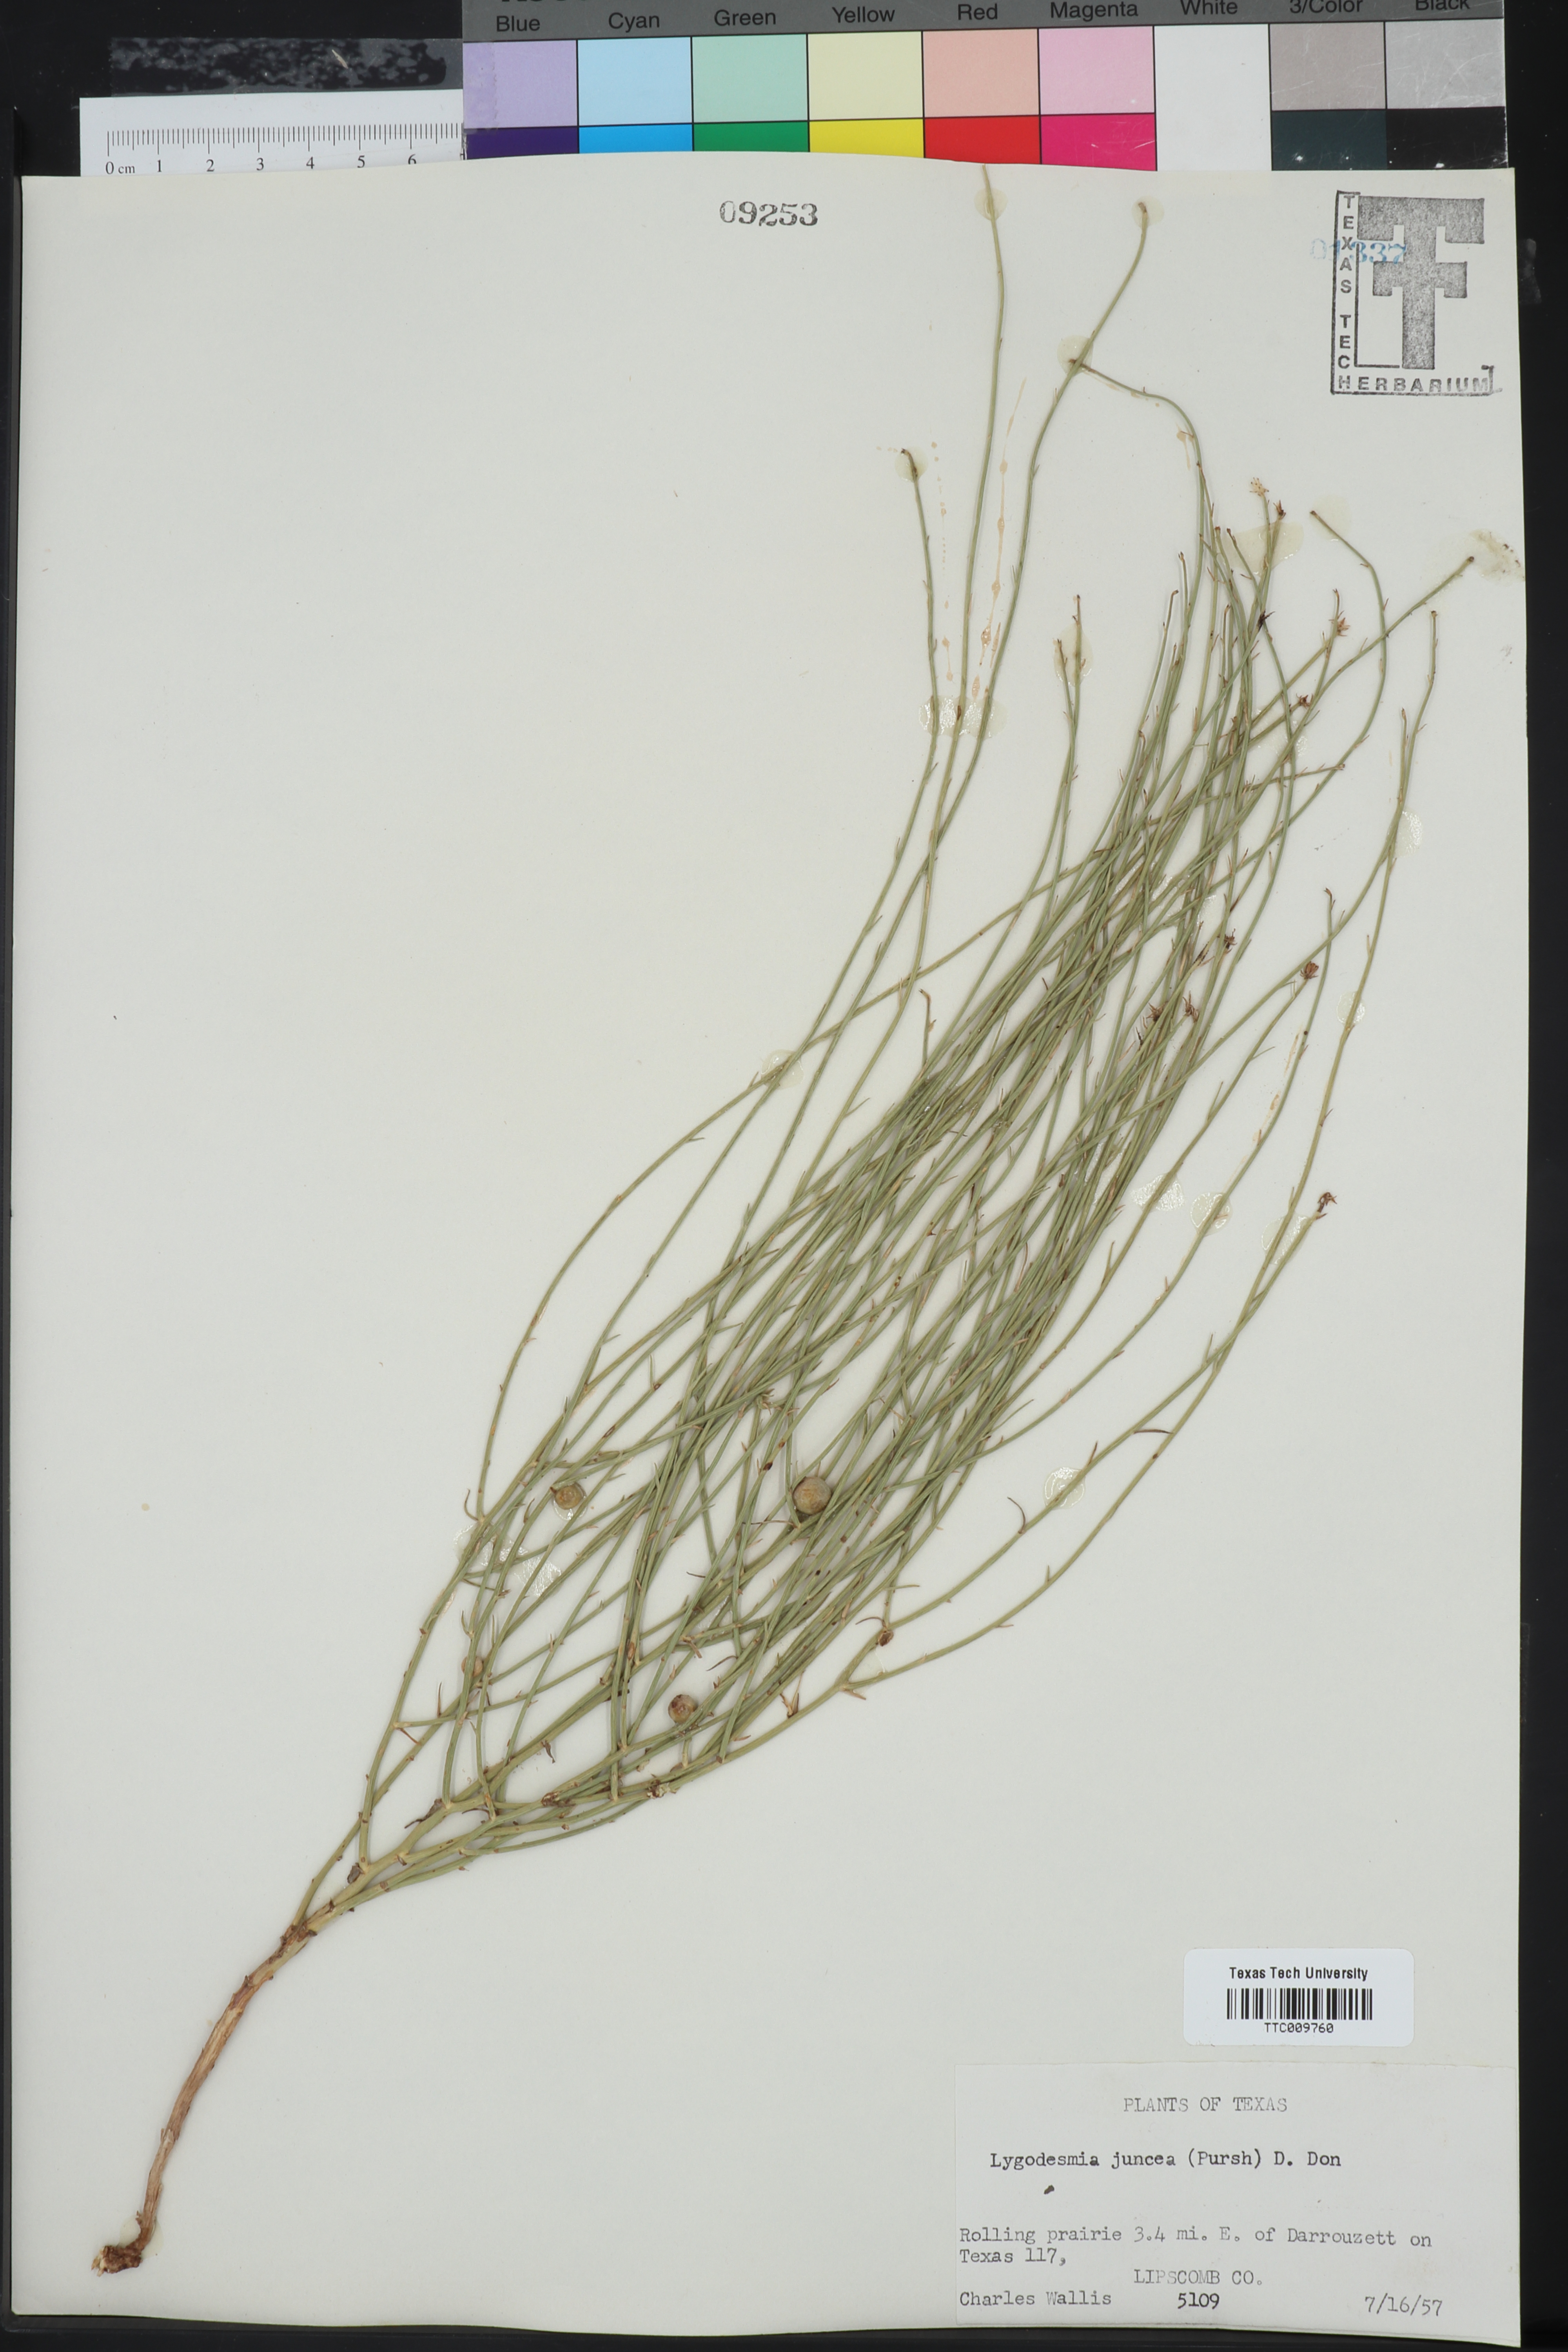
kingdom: Plantae
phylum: Tracheophyta
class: Magnoliopsida
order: Asterales
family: Asteraceae
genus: Lygodesmia
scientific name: Lygodesmia juncea
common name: Common skeletonweed
